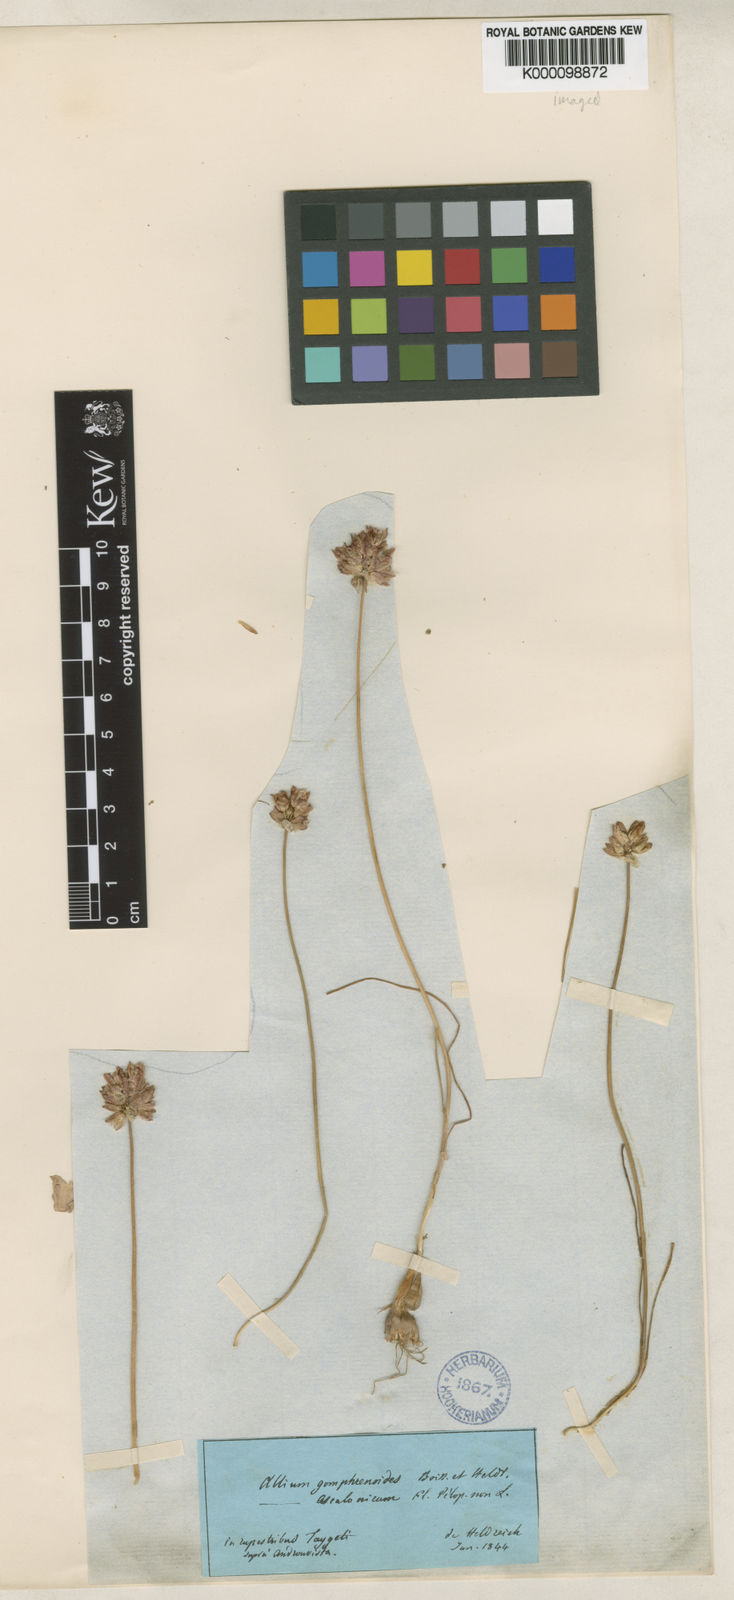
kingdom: Plantae
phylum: Tracheophyta
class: Liliopsida
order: Asparagales
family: Amaryllidaceae
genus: Allium
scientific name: Allium gomphrenoides
